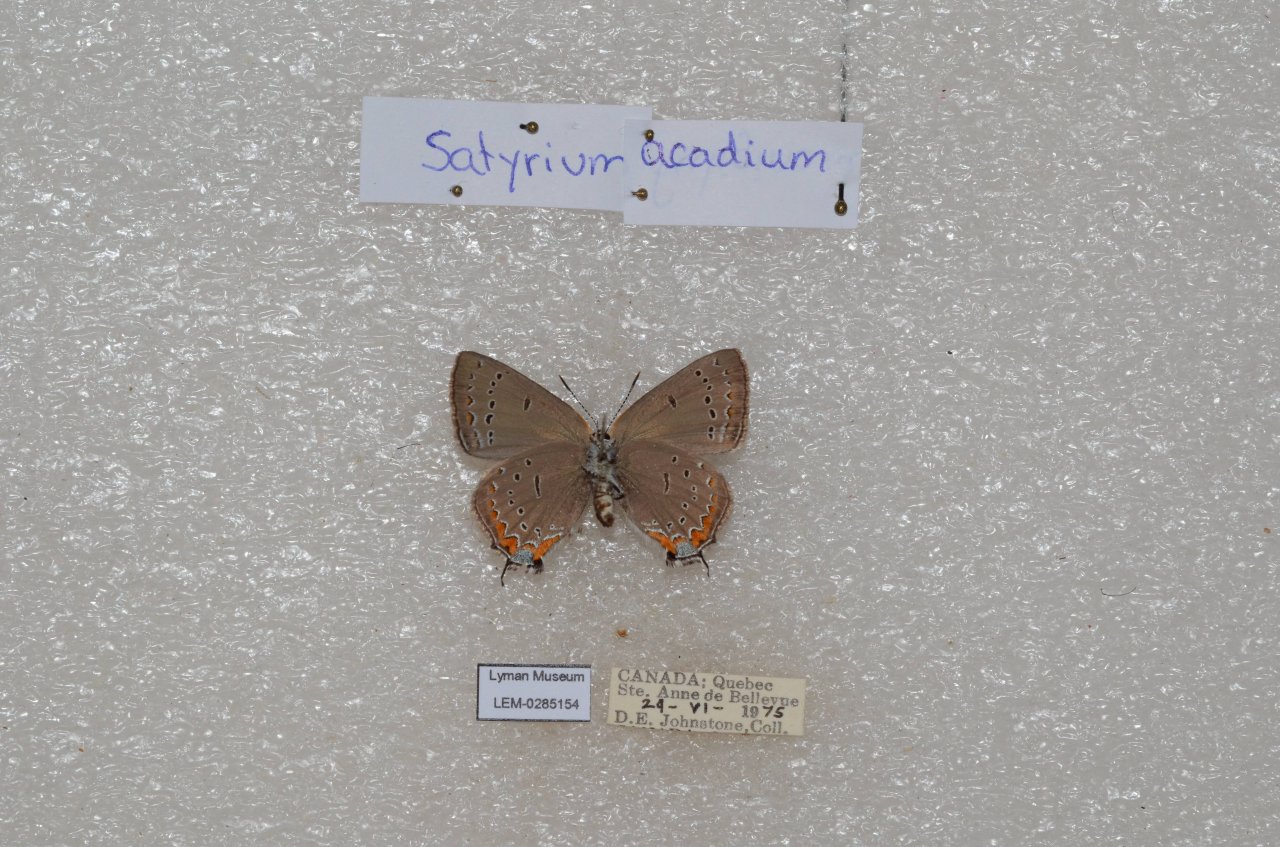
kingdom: Animalia
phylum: Arthropoda
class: Insecta
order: Lepidoptera
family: Lycaenidae
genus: Strymon
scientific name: Strymon acadica
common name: Acadian Hairstreak
